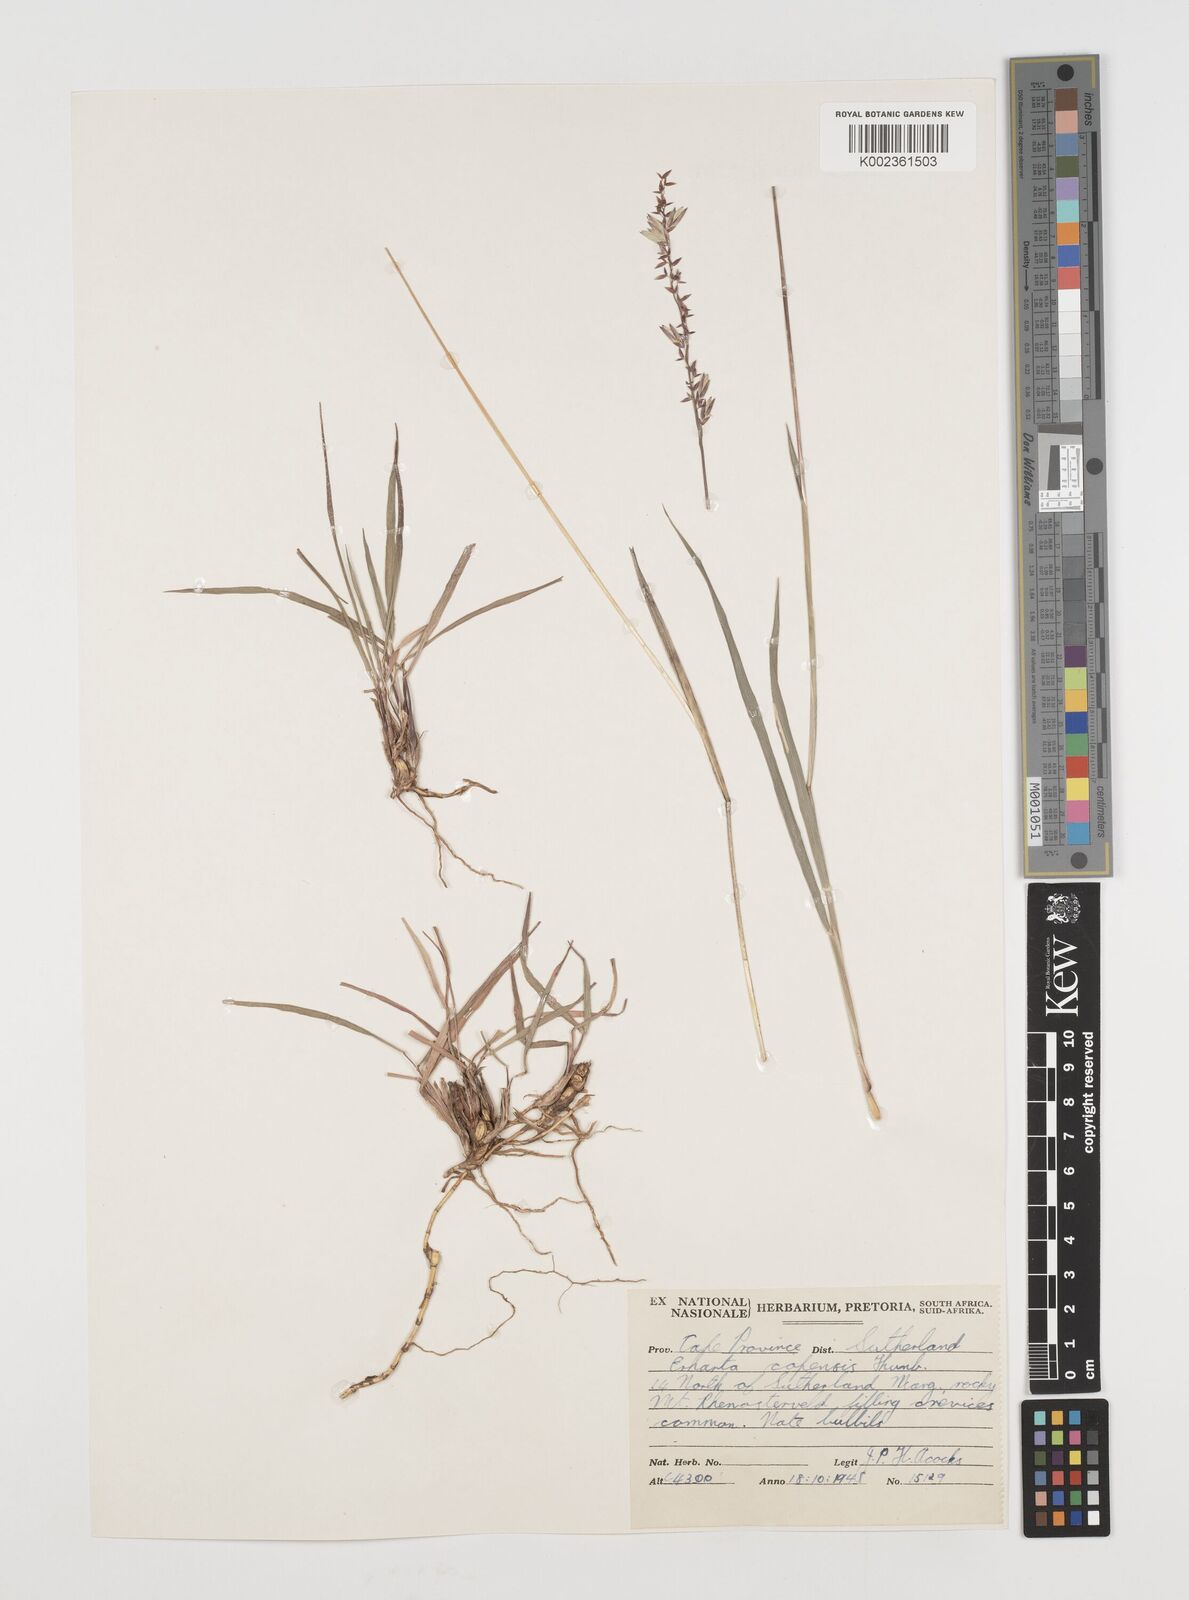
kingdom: Plantae
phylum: Tracheophyta
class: Liliopsida
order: Poales
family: Poaceae
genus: Ehrharta
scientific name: Ehrharta eburnea
